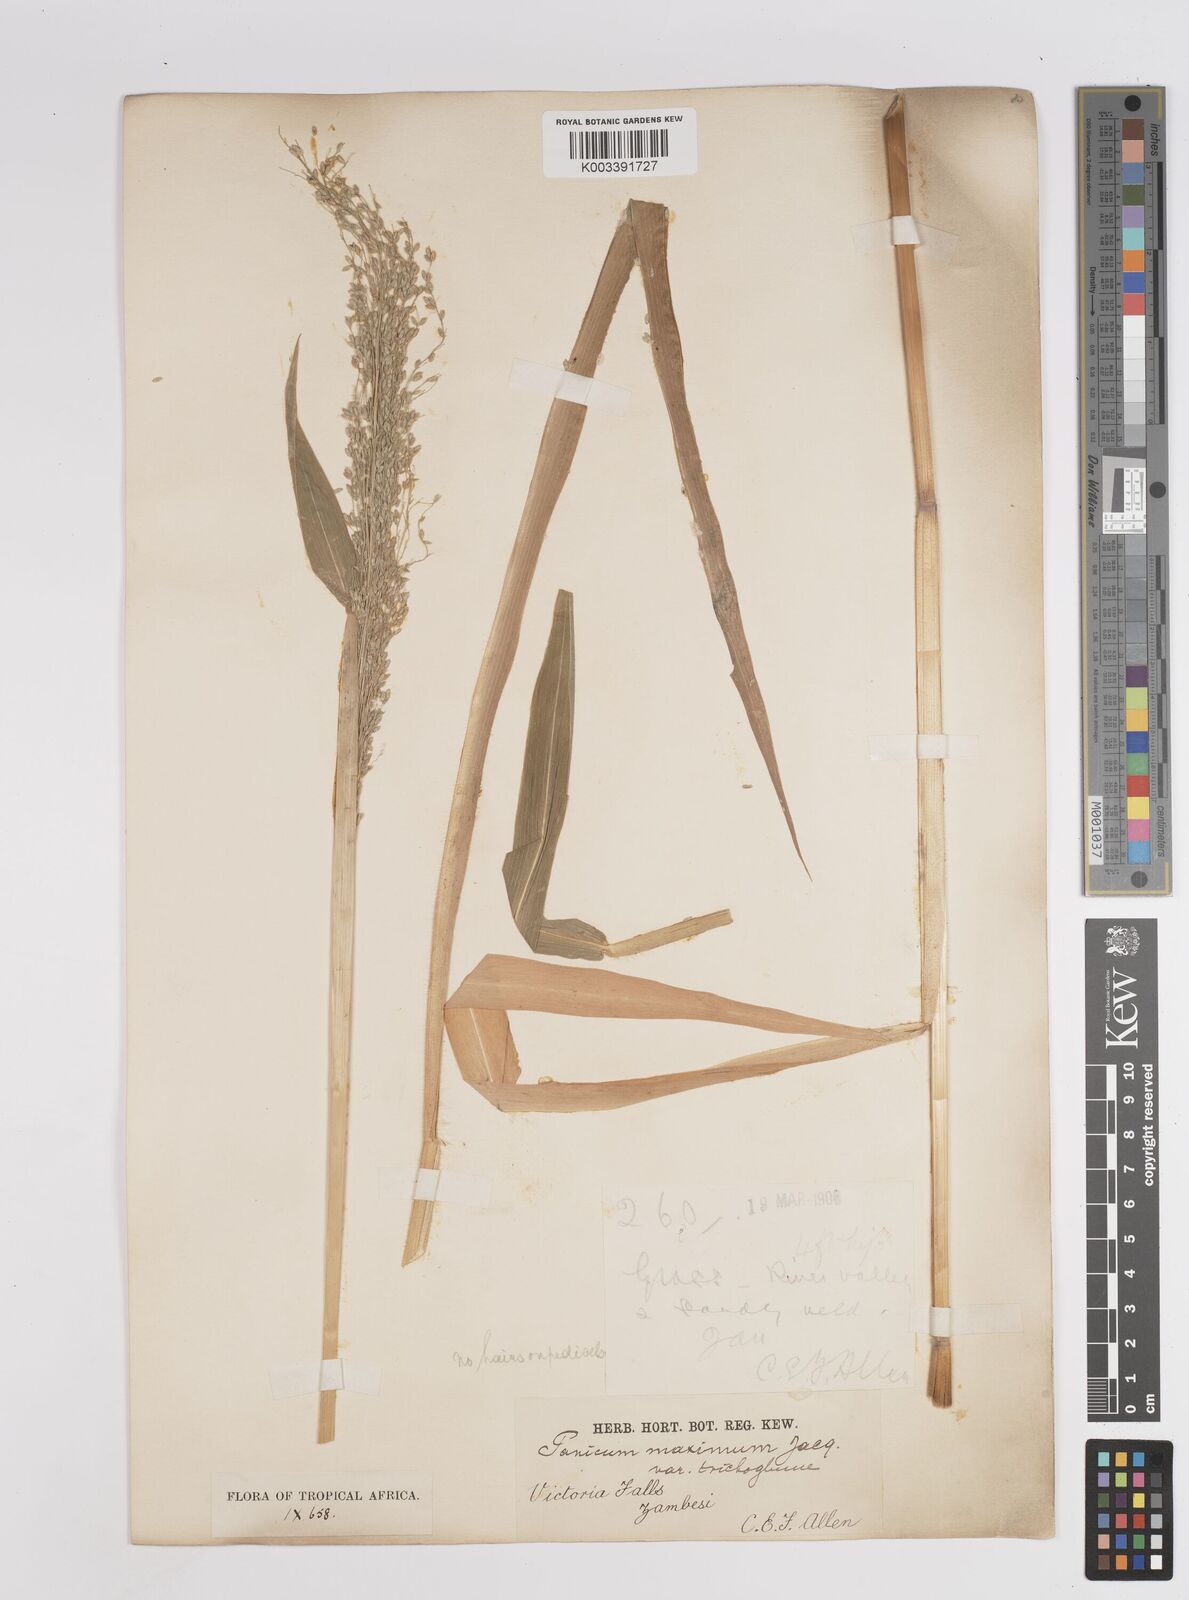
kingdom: Plantae
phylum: Tracheophyta
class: Liliopsida
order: Poales
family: Poaceae
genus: Megathyrsus
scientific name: Megathyrsus maximus
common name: Guineagrass
